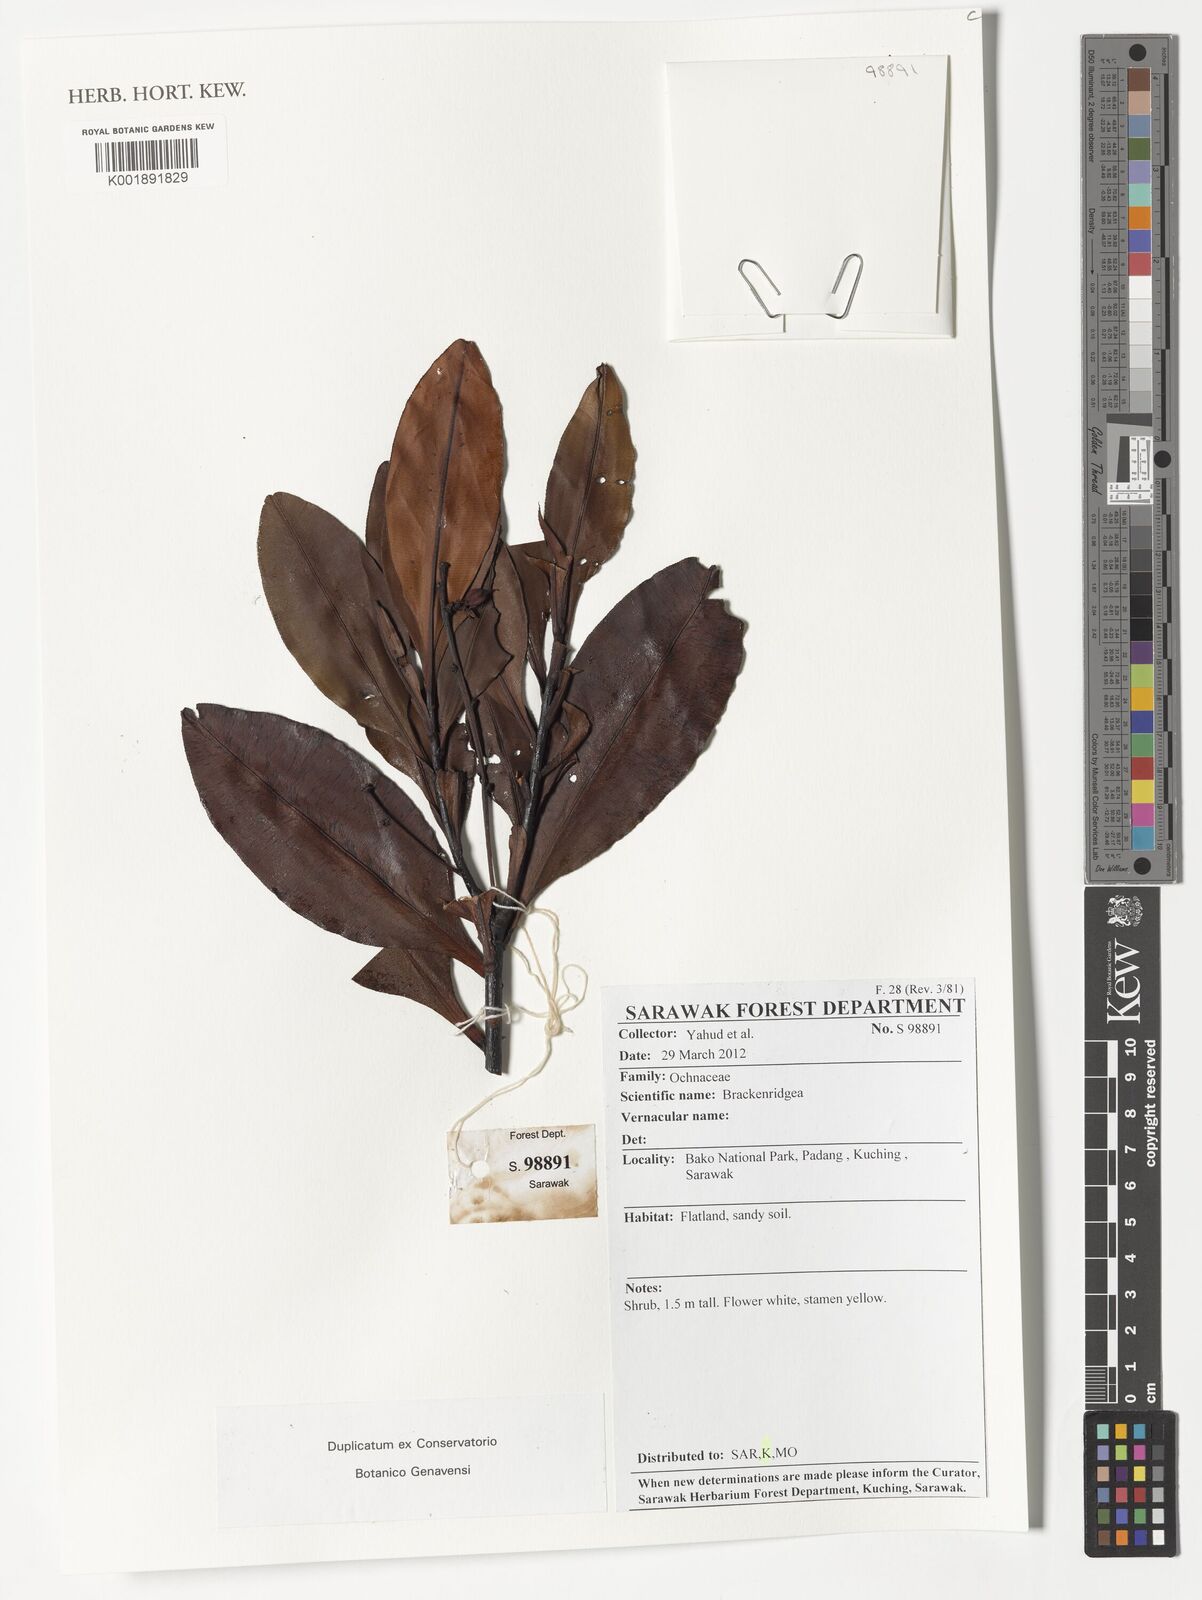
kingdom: Plantae
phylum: Tracheophyta
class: Magnoliopsida
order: Malpighiales
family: Ochnaceae
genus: Brackenridgea
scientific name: Brackenridgea
